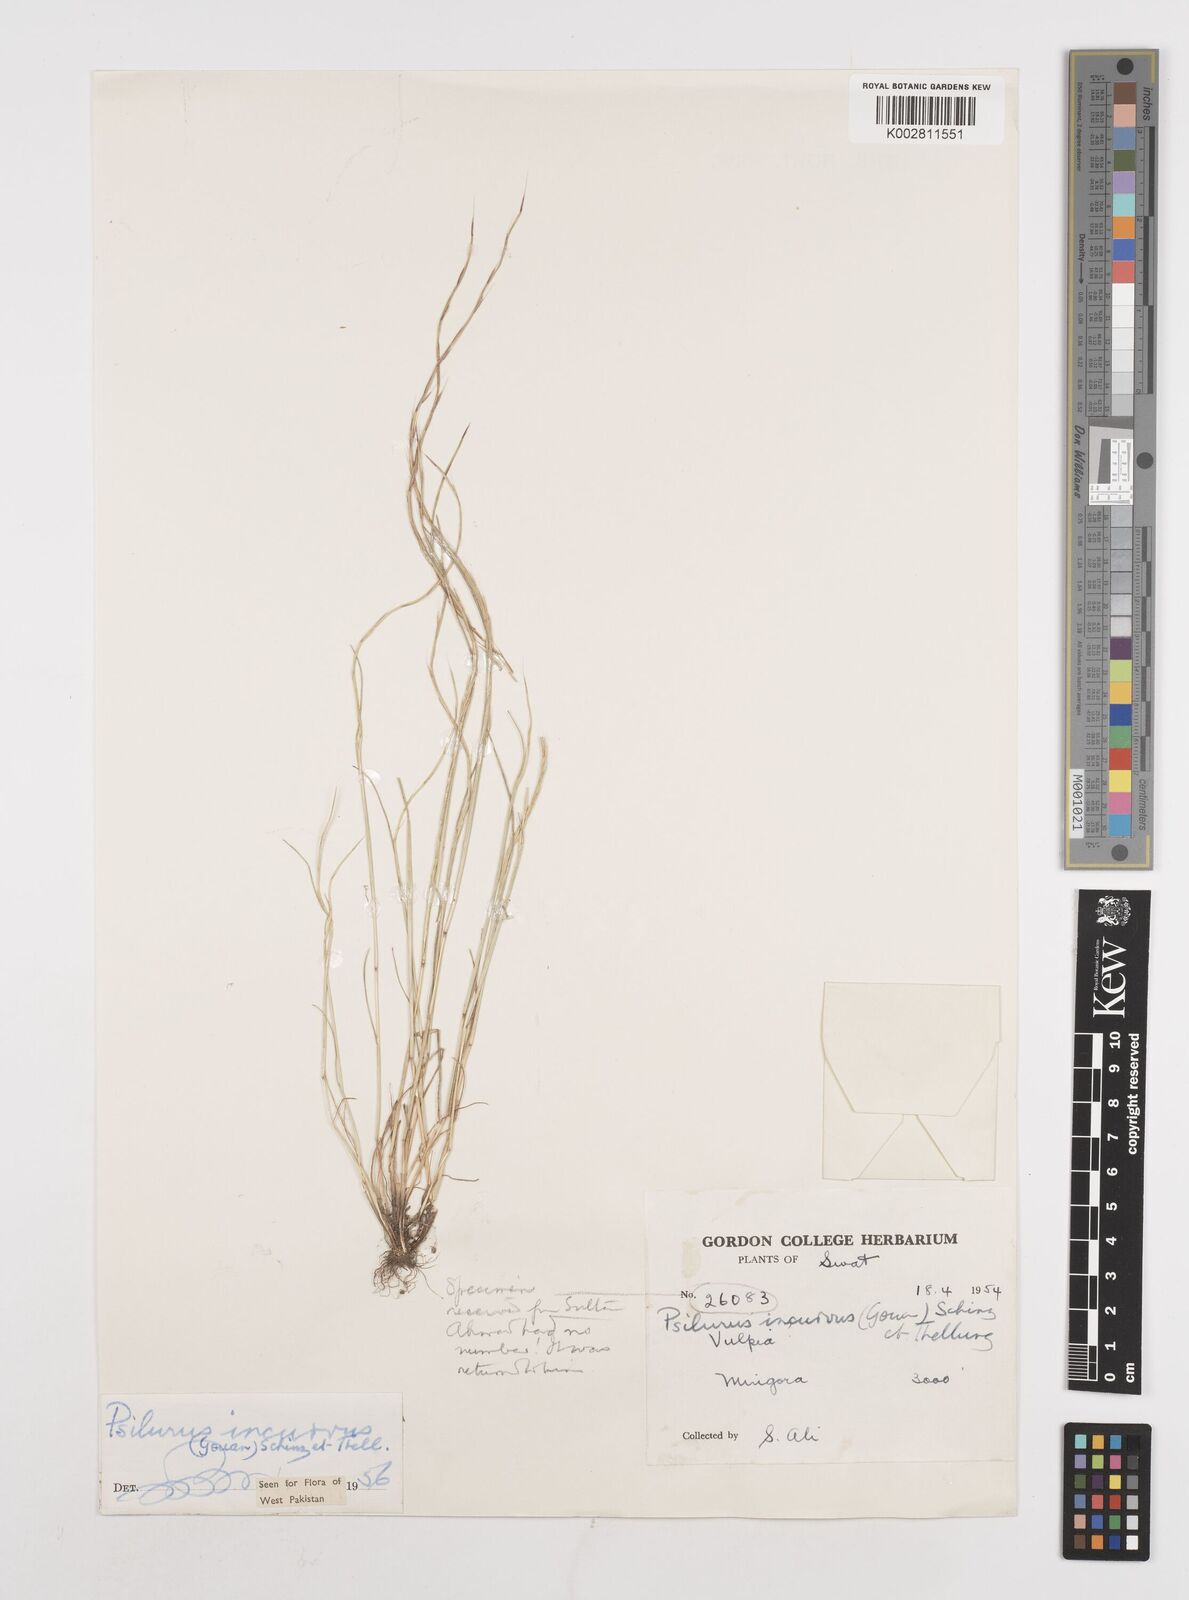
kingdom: Plantae
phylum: Tracheophyta
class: Liliopsida
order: Poales
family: Poaceae
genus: Festuca
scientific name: Festuca incurva
